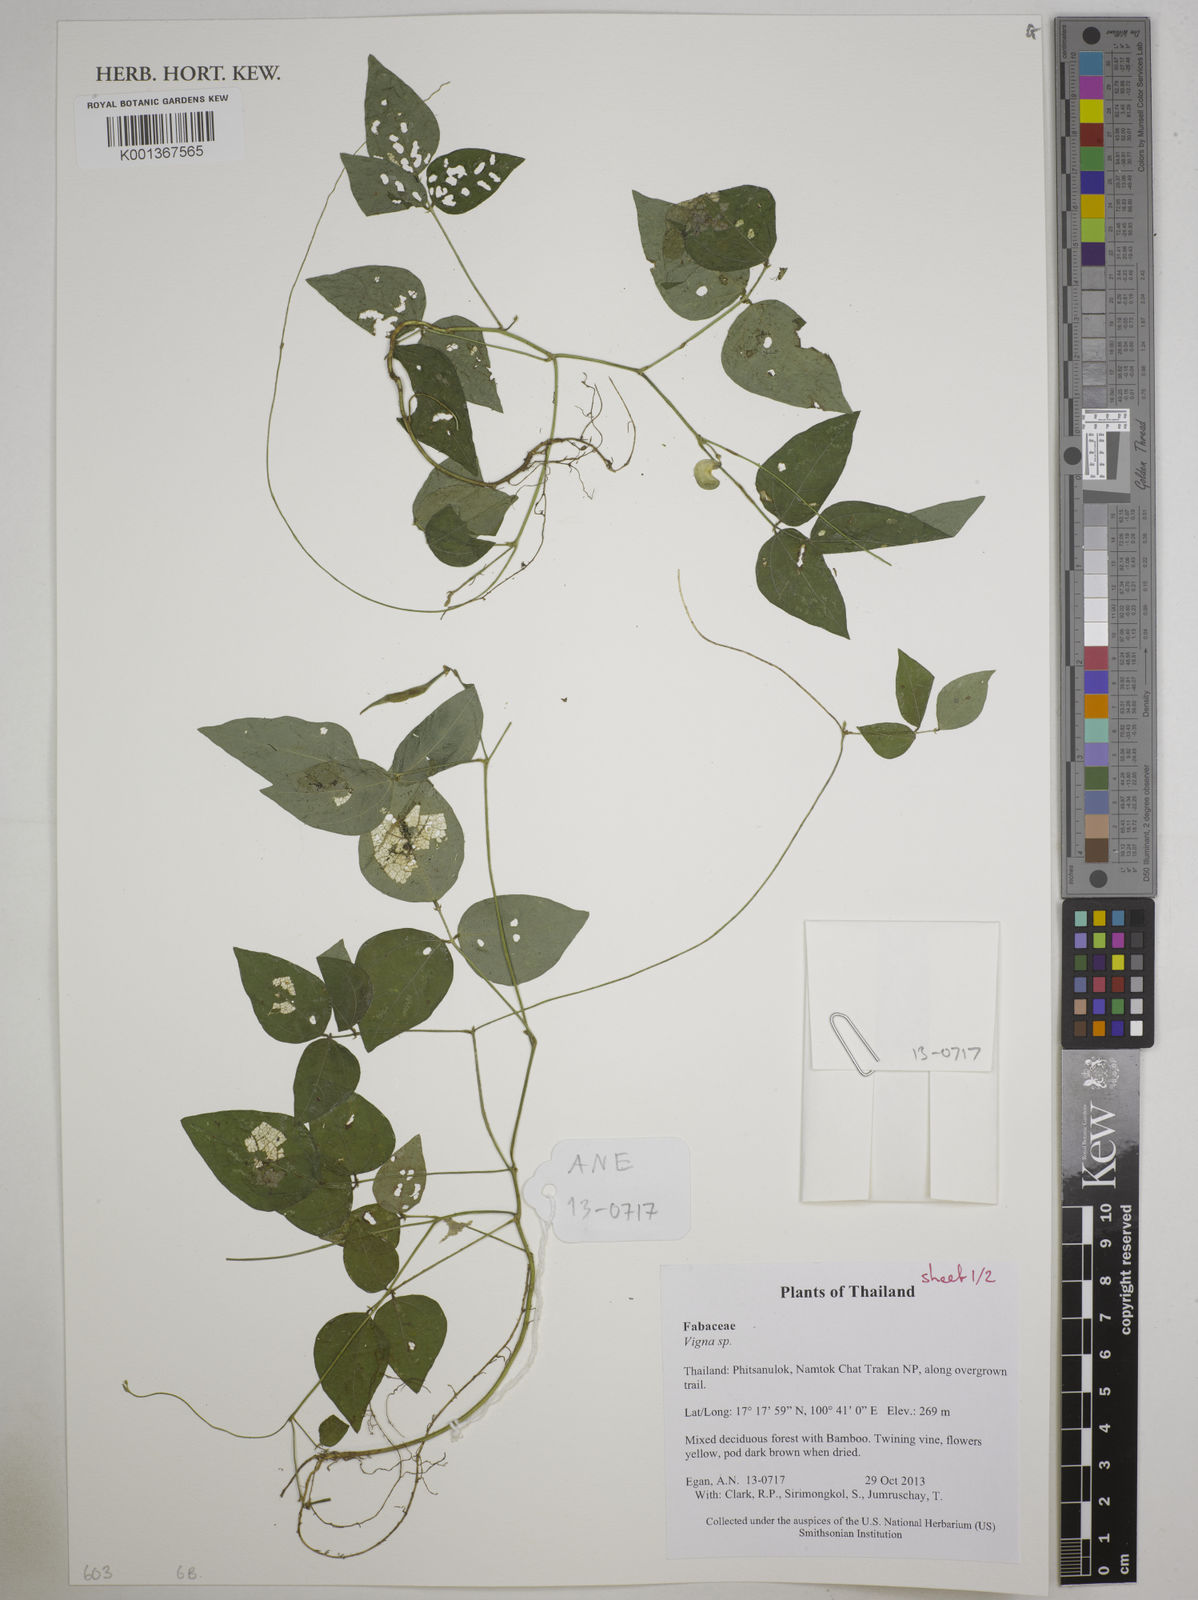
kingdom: Plantae
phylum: Tracheophyta
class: Magnoliopsida
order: Fabales
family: Fabaceae
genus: Vigna
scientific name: Vigna
